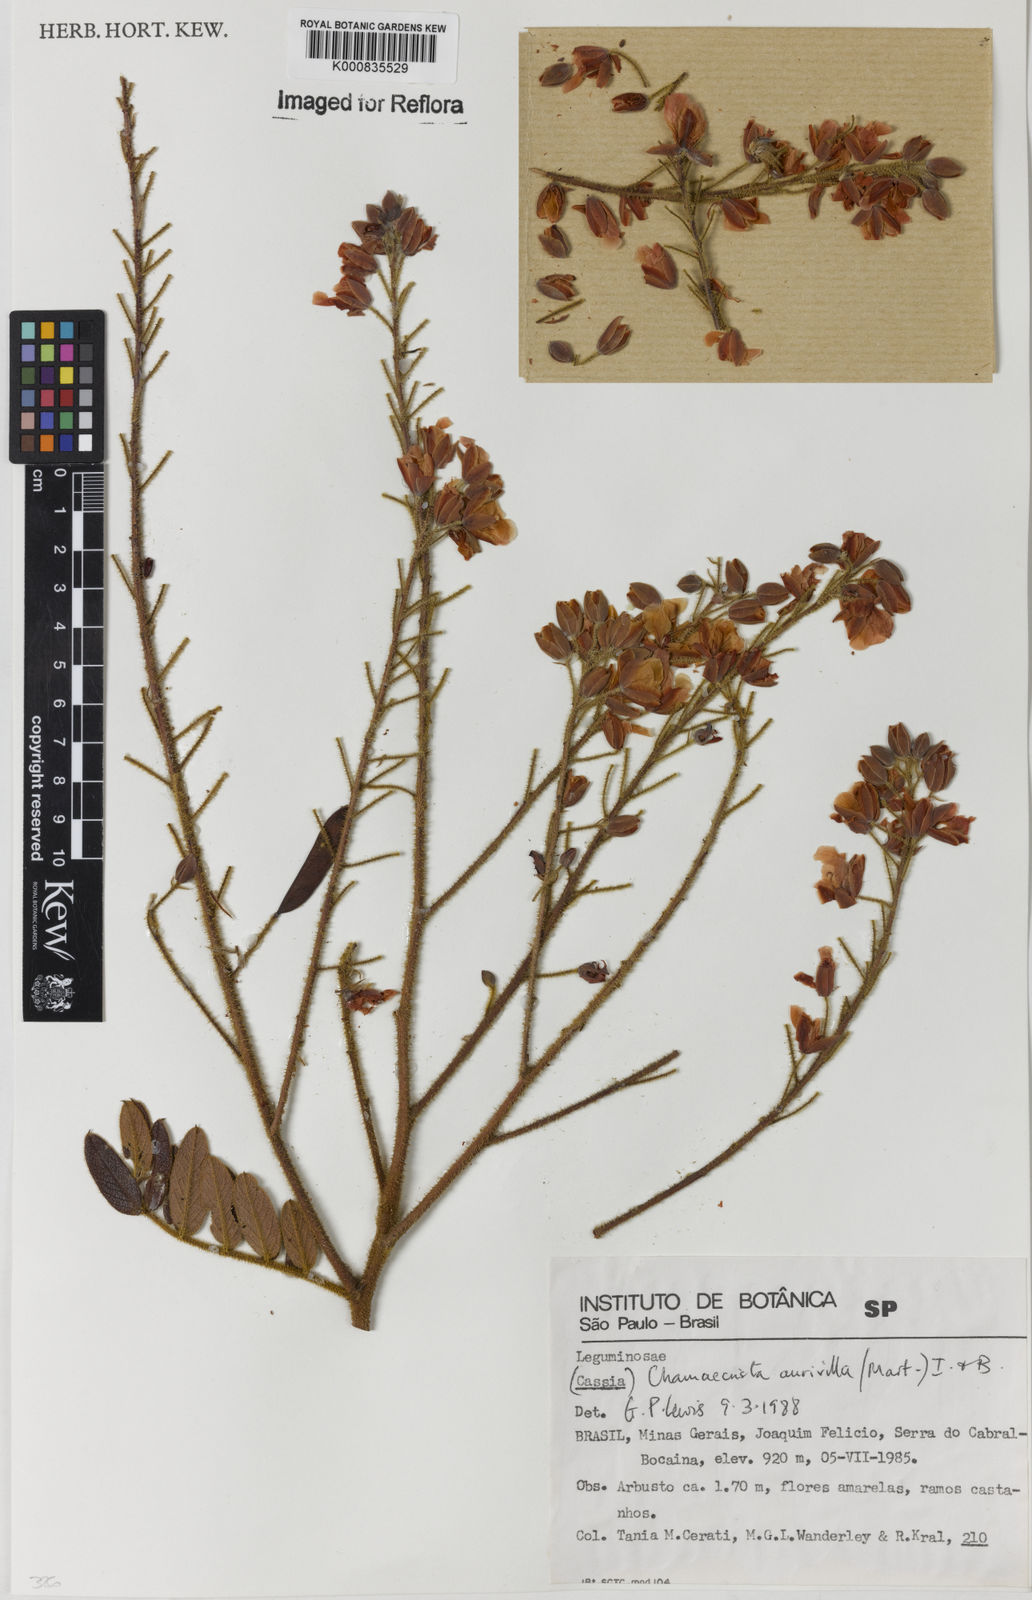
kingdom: Plantae
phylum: Tracheophyta
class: Magnoliopsida
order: Fabales
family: Fabaceae
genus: Chamaecrista
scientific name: Chamaecrista aurivilla
